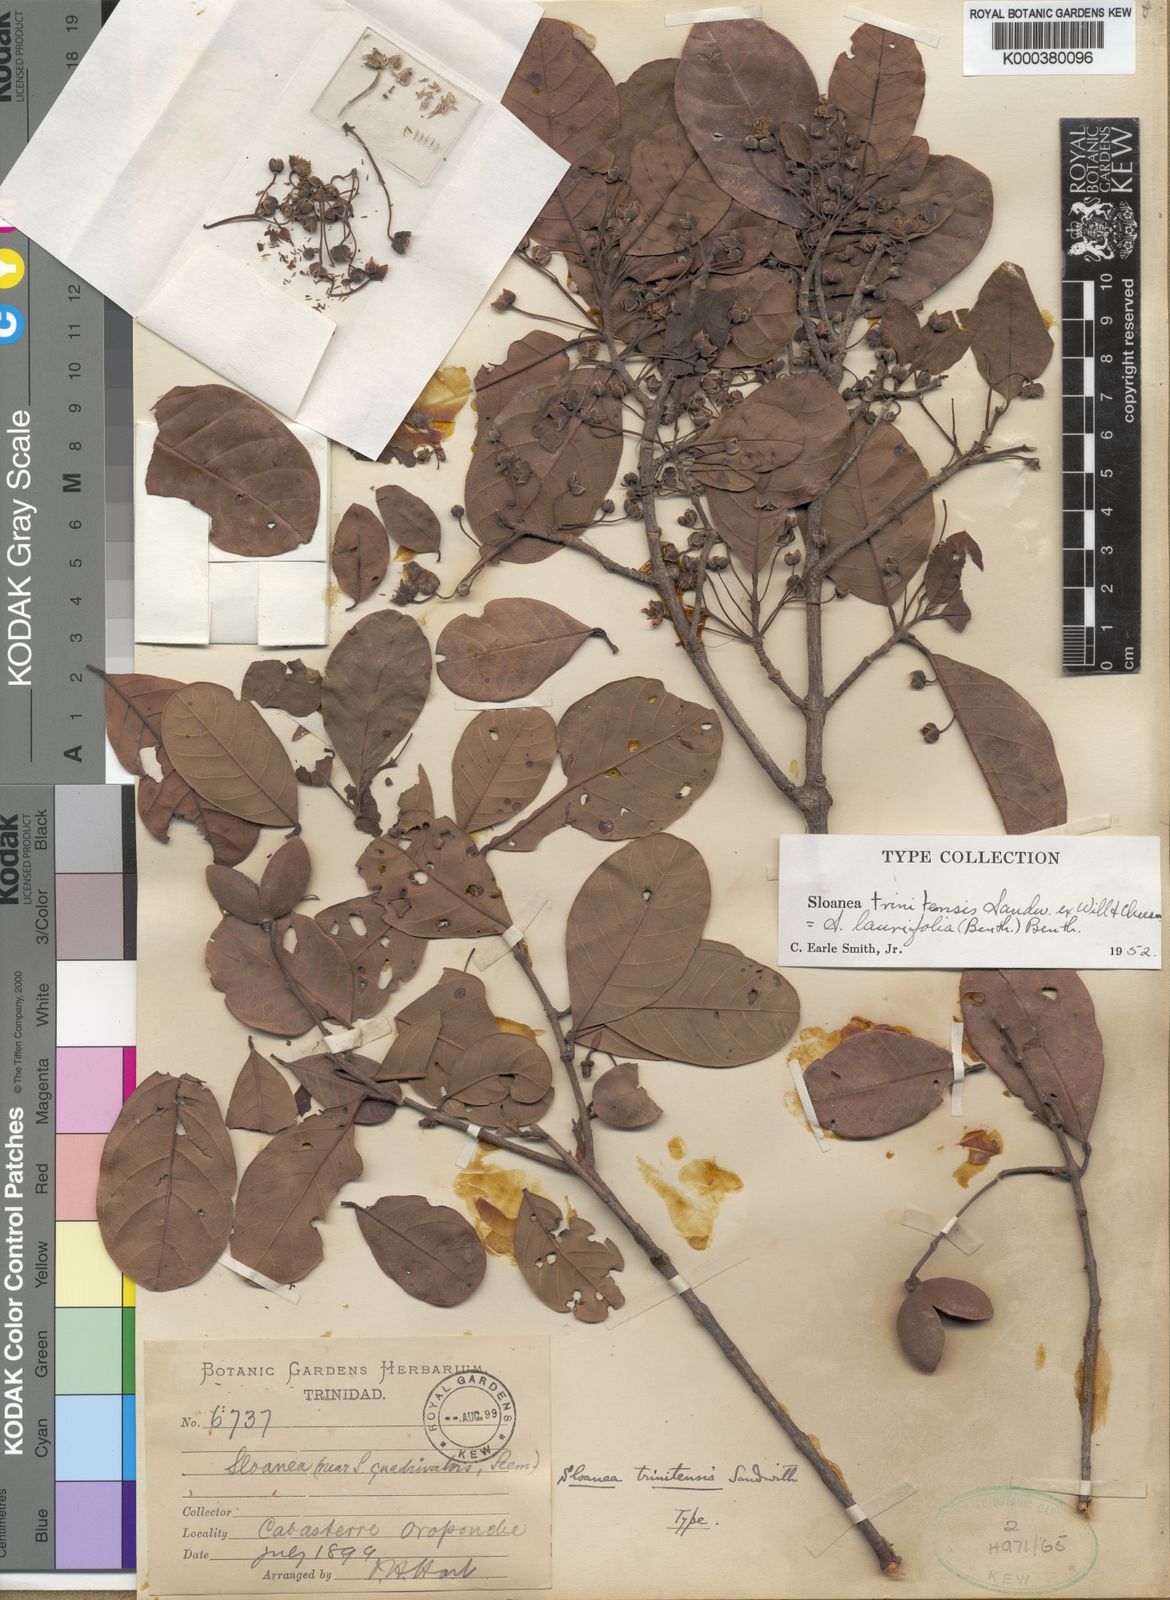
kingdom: Plantae
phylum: Tracheophyta
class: Magnoliopsida
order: Oxalidales
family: Elaeocarpaceae
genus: Sloanea
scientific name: Sloanea laurifolia
